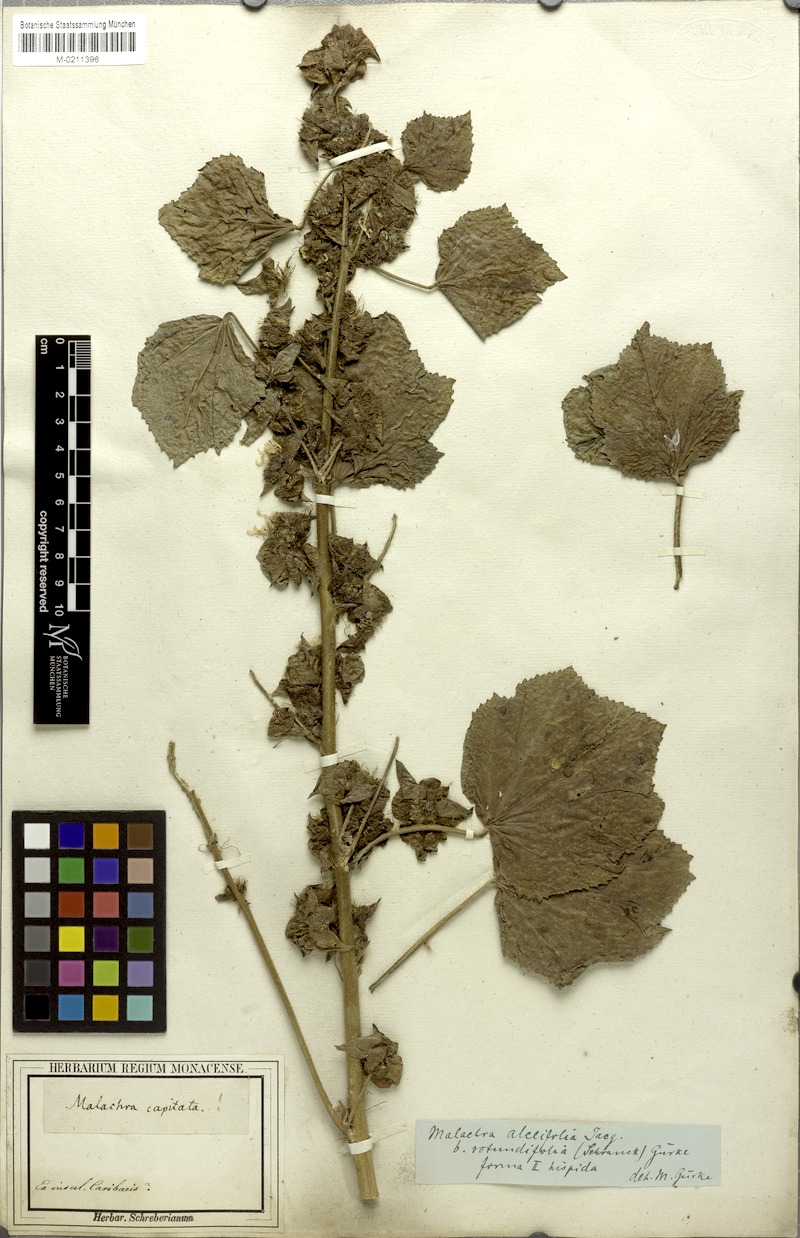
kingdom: Plantae
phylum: Tracheophyta
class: Magnoliopsida
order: Malvales
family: Malvaceae
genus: Malachra
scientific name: Malachra alceifolia
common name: Yellow leafbract
